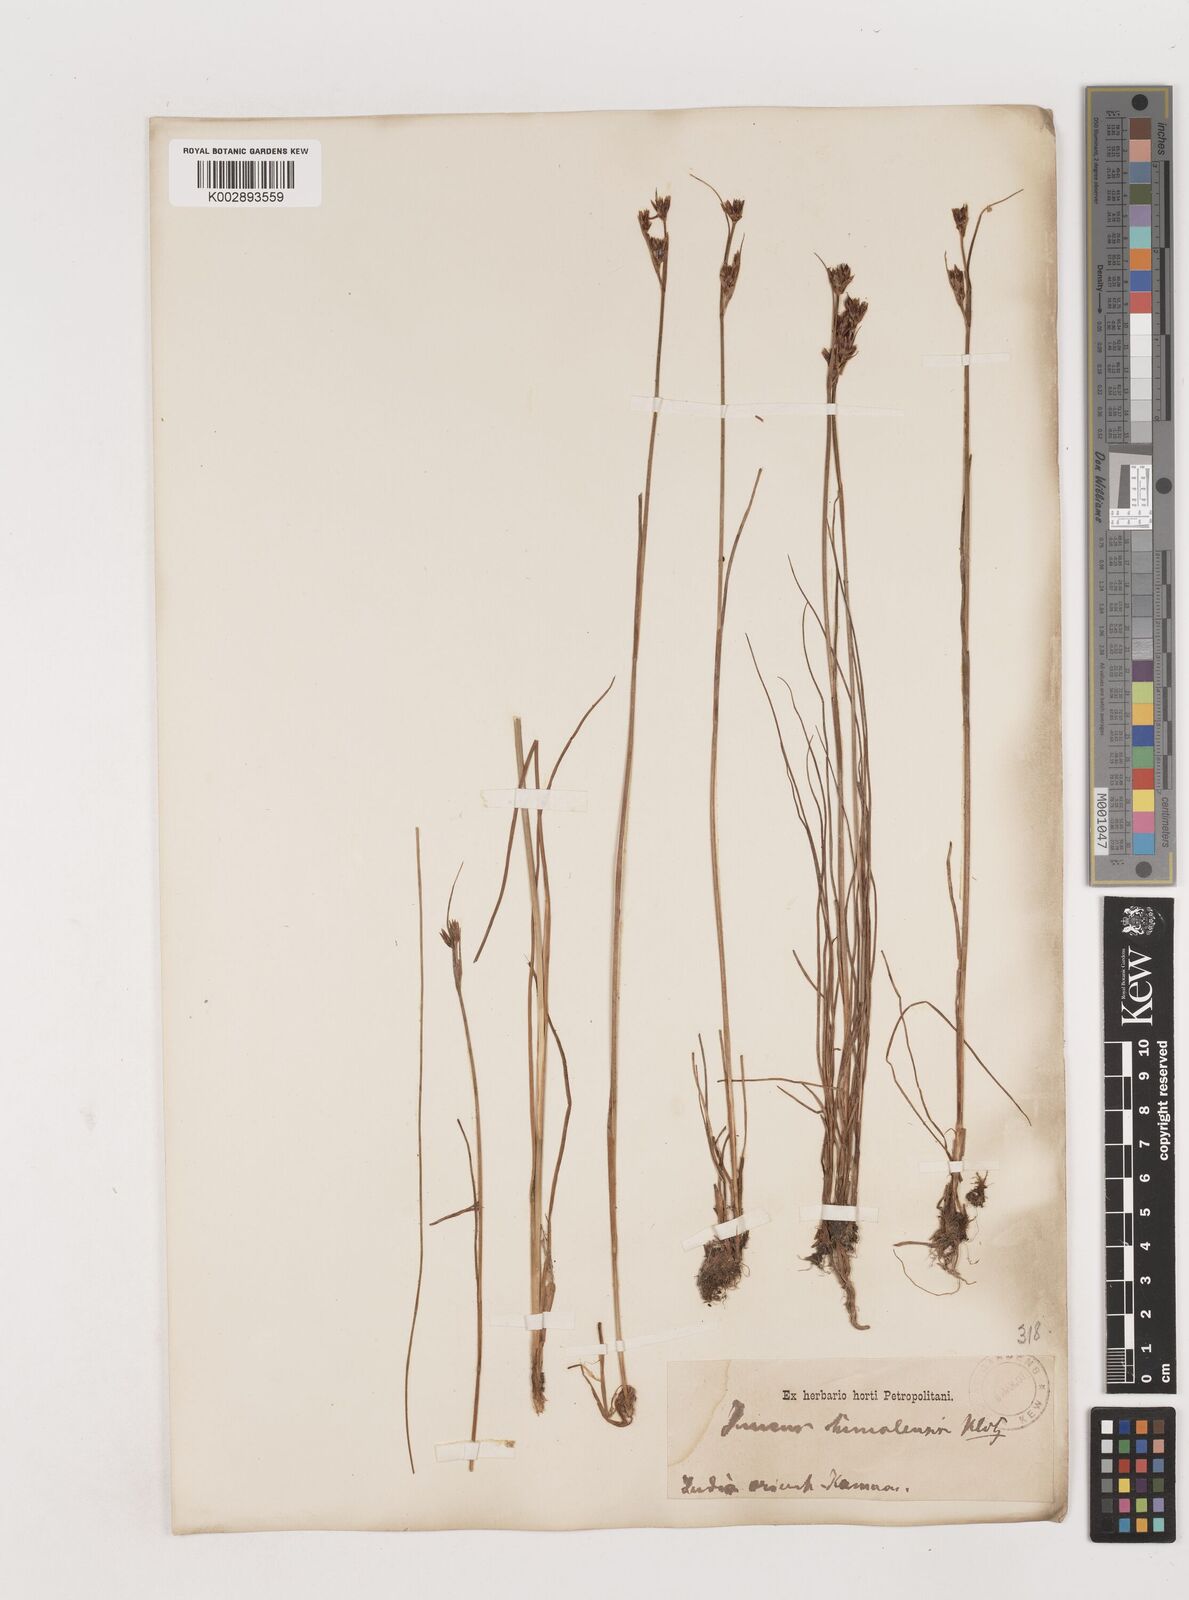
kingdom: Plantae
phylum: Tracheophyta
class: Liliopsida
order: Poales
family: Juncaceae
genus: Juncus
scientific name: Juncus himalensis
